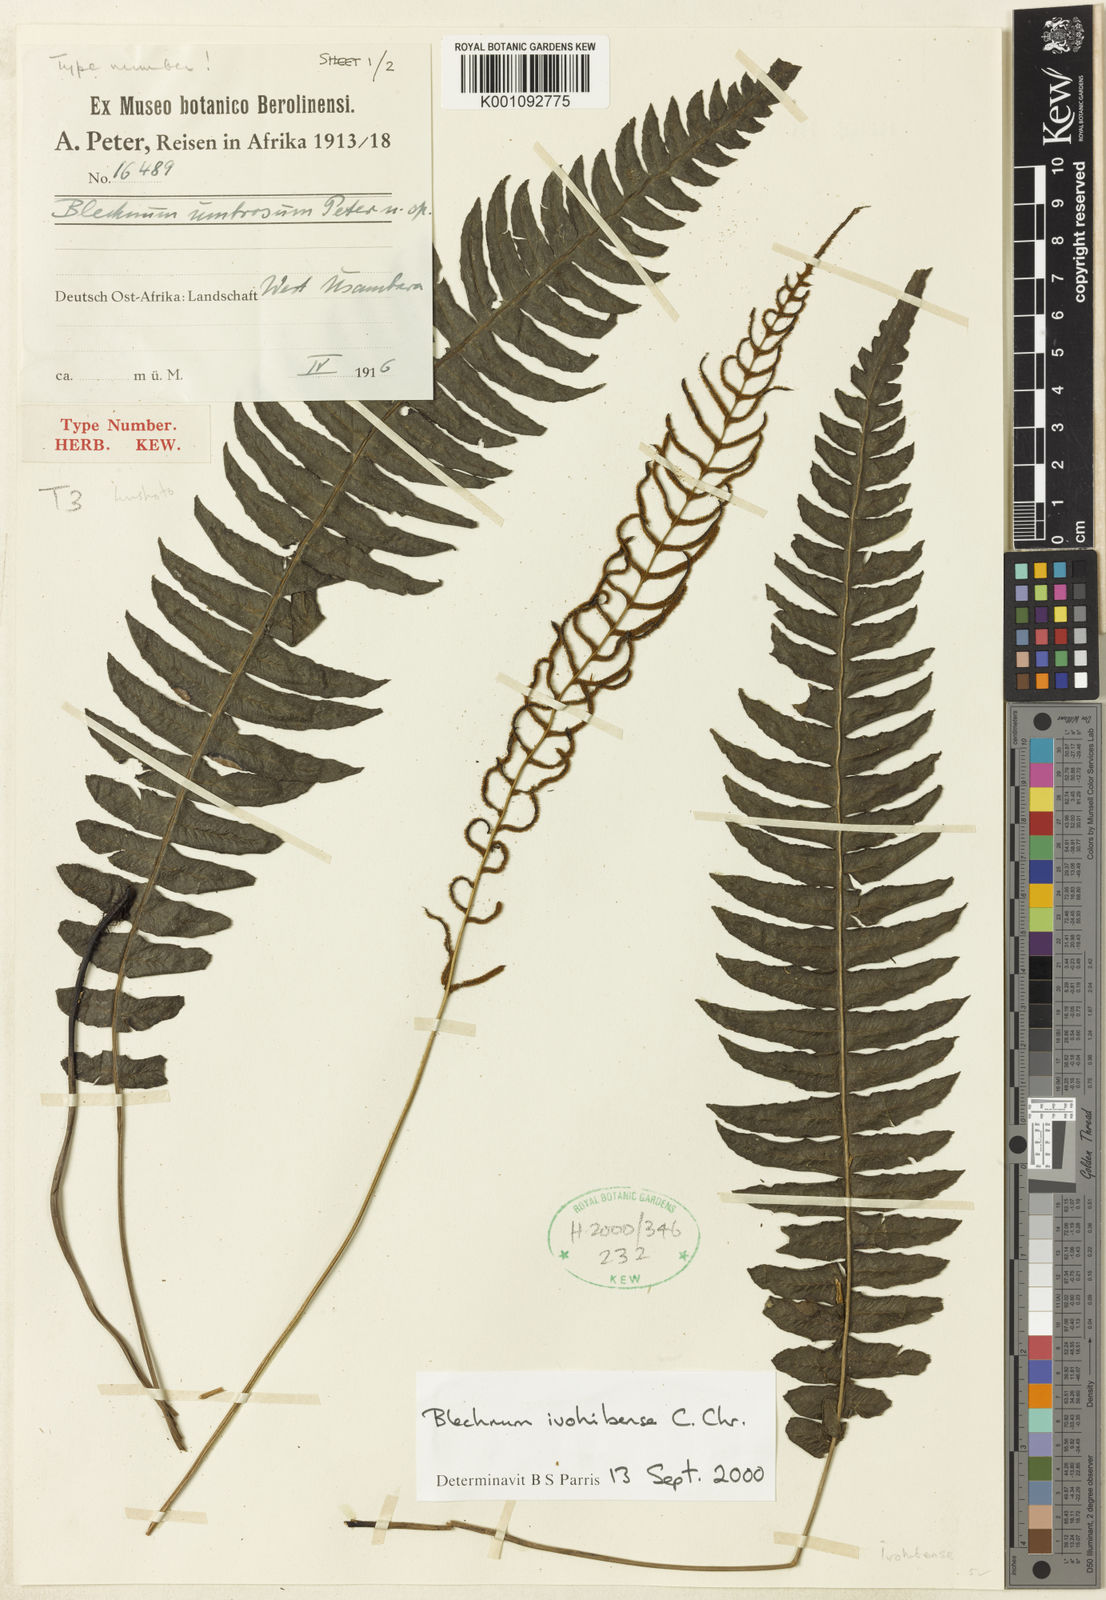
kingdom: Plantae
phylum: Tracheophyta
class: Polypodiopsida
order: Polypodiales
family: Blechnaceae
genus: Cranfillia
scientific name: Cranfillia bakeri
